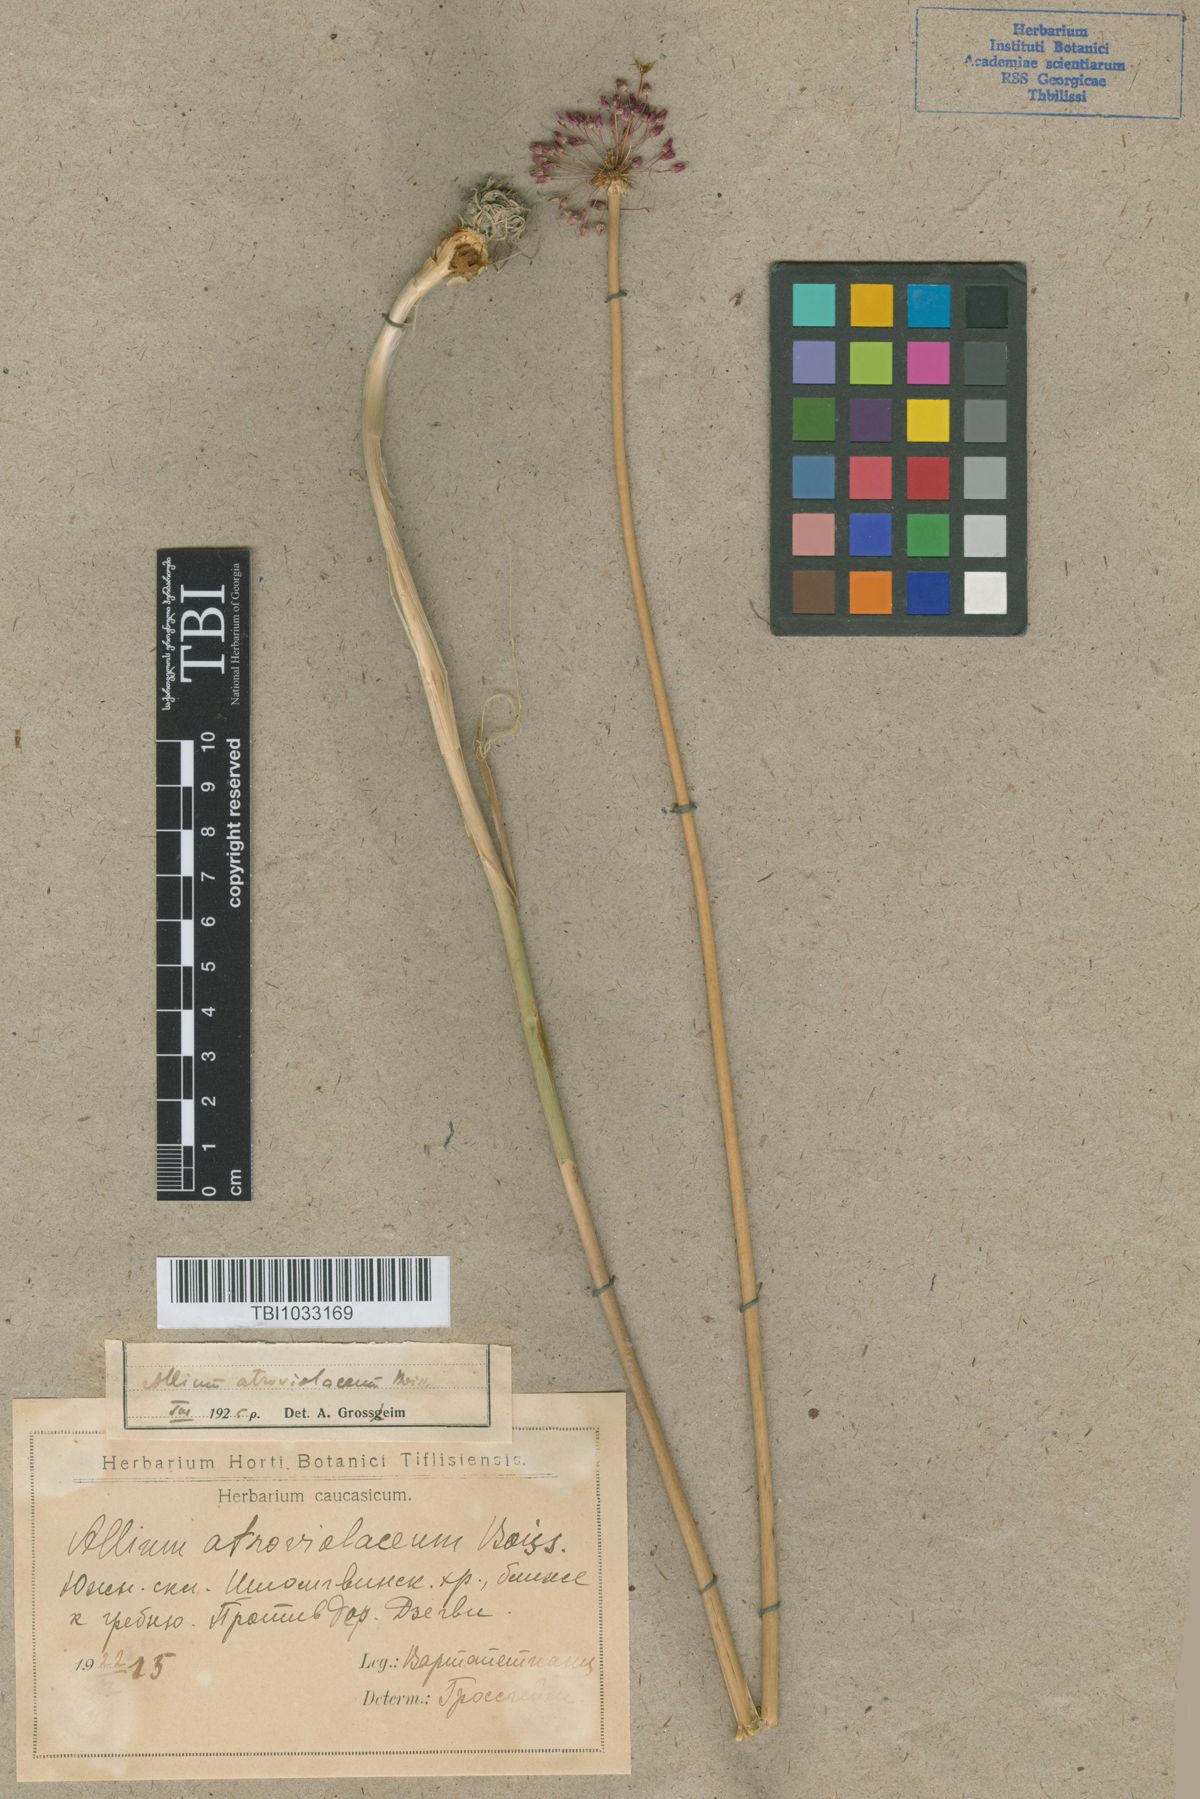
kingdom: Plantae
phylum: Tracheophyta
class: Liliopsida
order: Asparagales
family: Amaryllidaceae
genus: Allium
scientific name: Allium atroviolaceum
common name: Broadleaf wild leek
